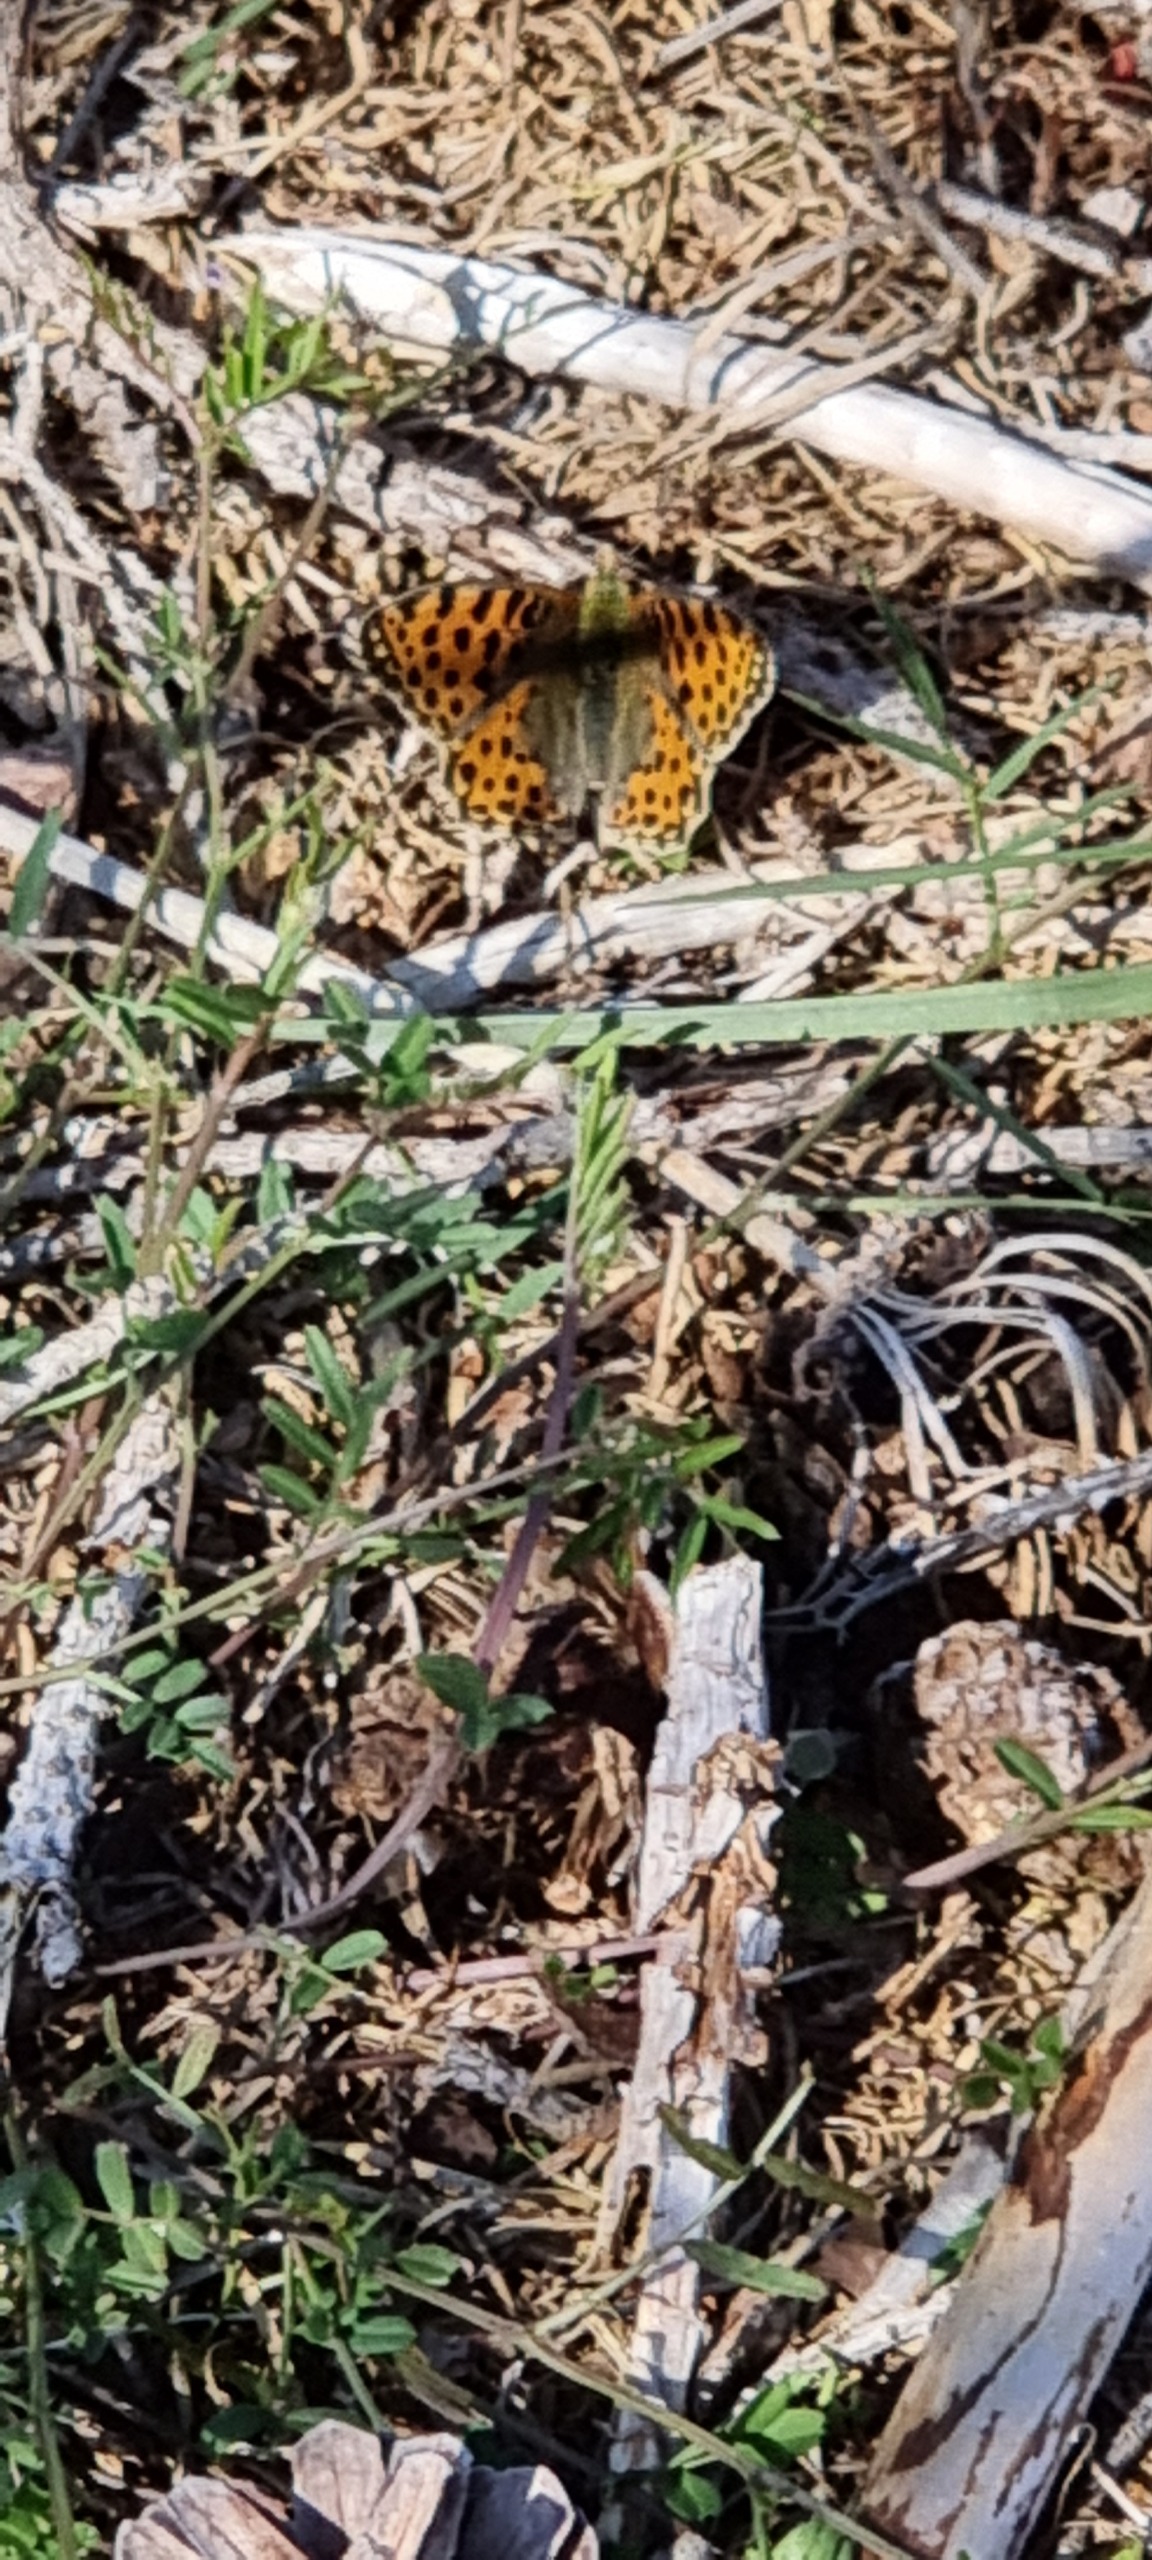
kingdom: Animalia
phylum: Arthropoda
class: Insecta
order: Lepidoptera
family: Nymphalidae
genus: Issoria
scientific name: Issoria lathonia
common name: Storplettet perlemorsommerfugl
